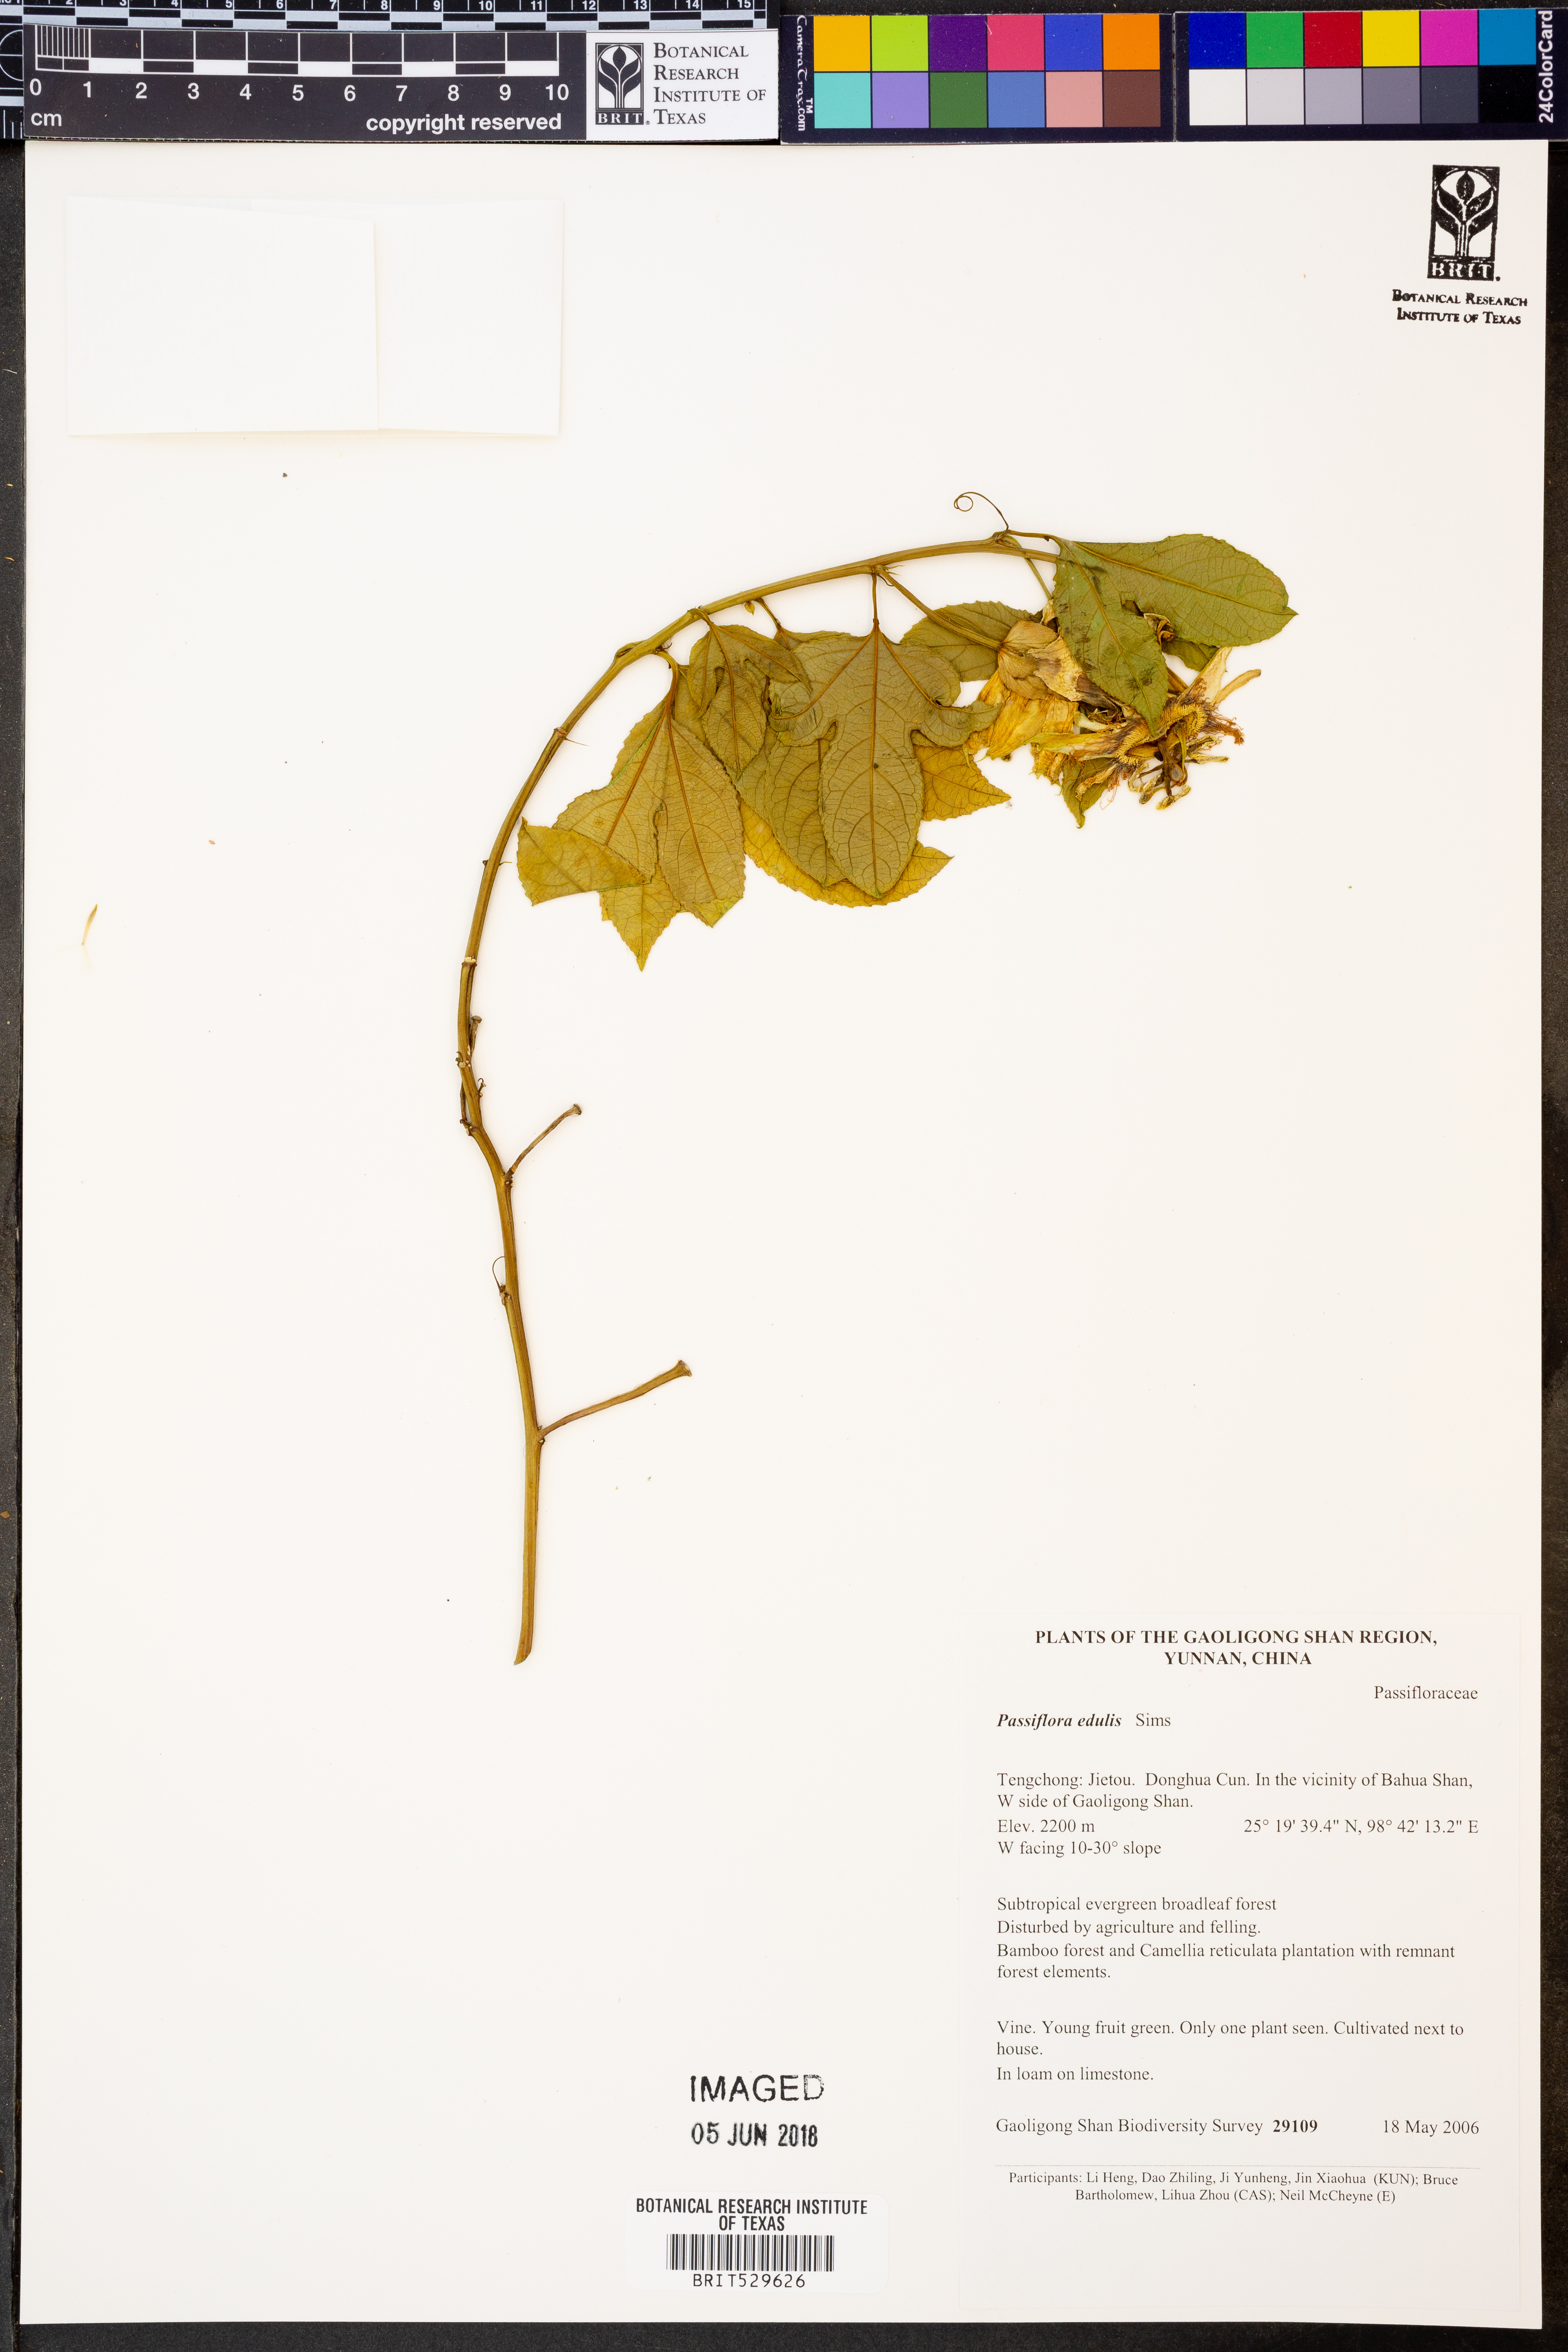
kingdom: Plantae
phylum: Tracheophyta
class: Magnoliopsida
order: Malpighiales
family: Passifloraceae
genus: Passiflora
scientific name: Passiflora edulis
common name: Purple granadilla
